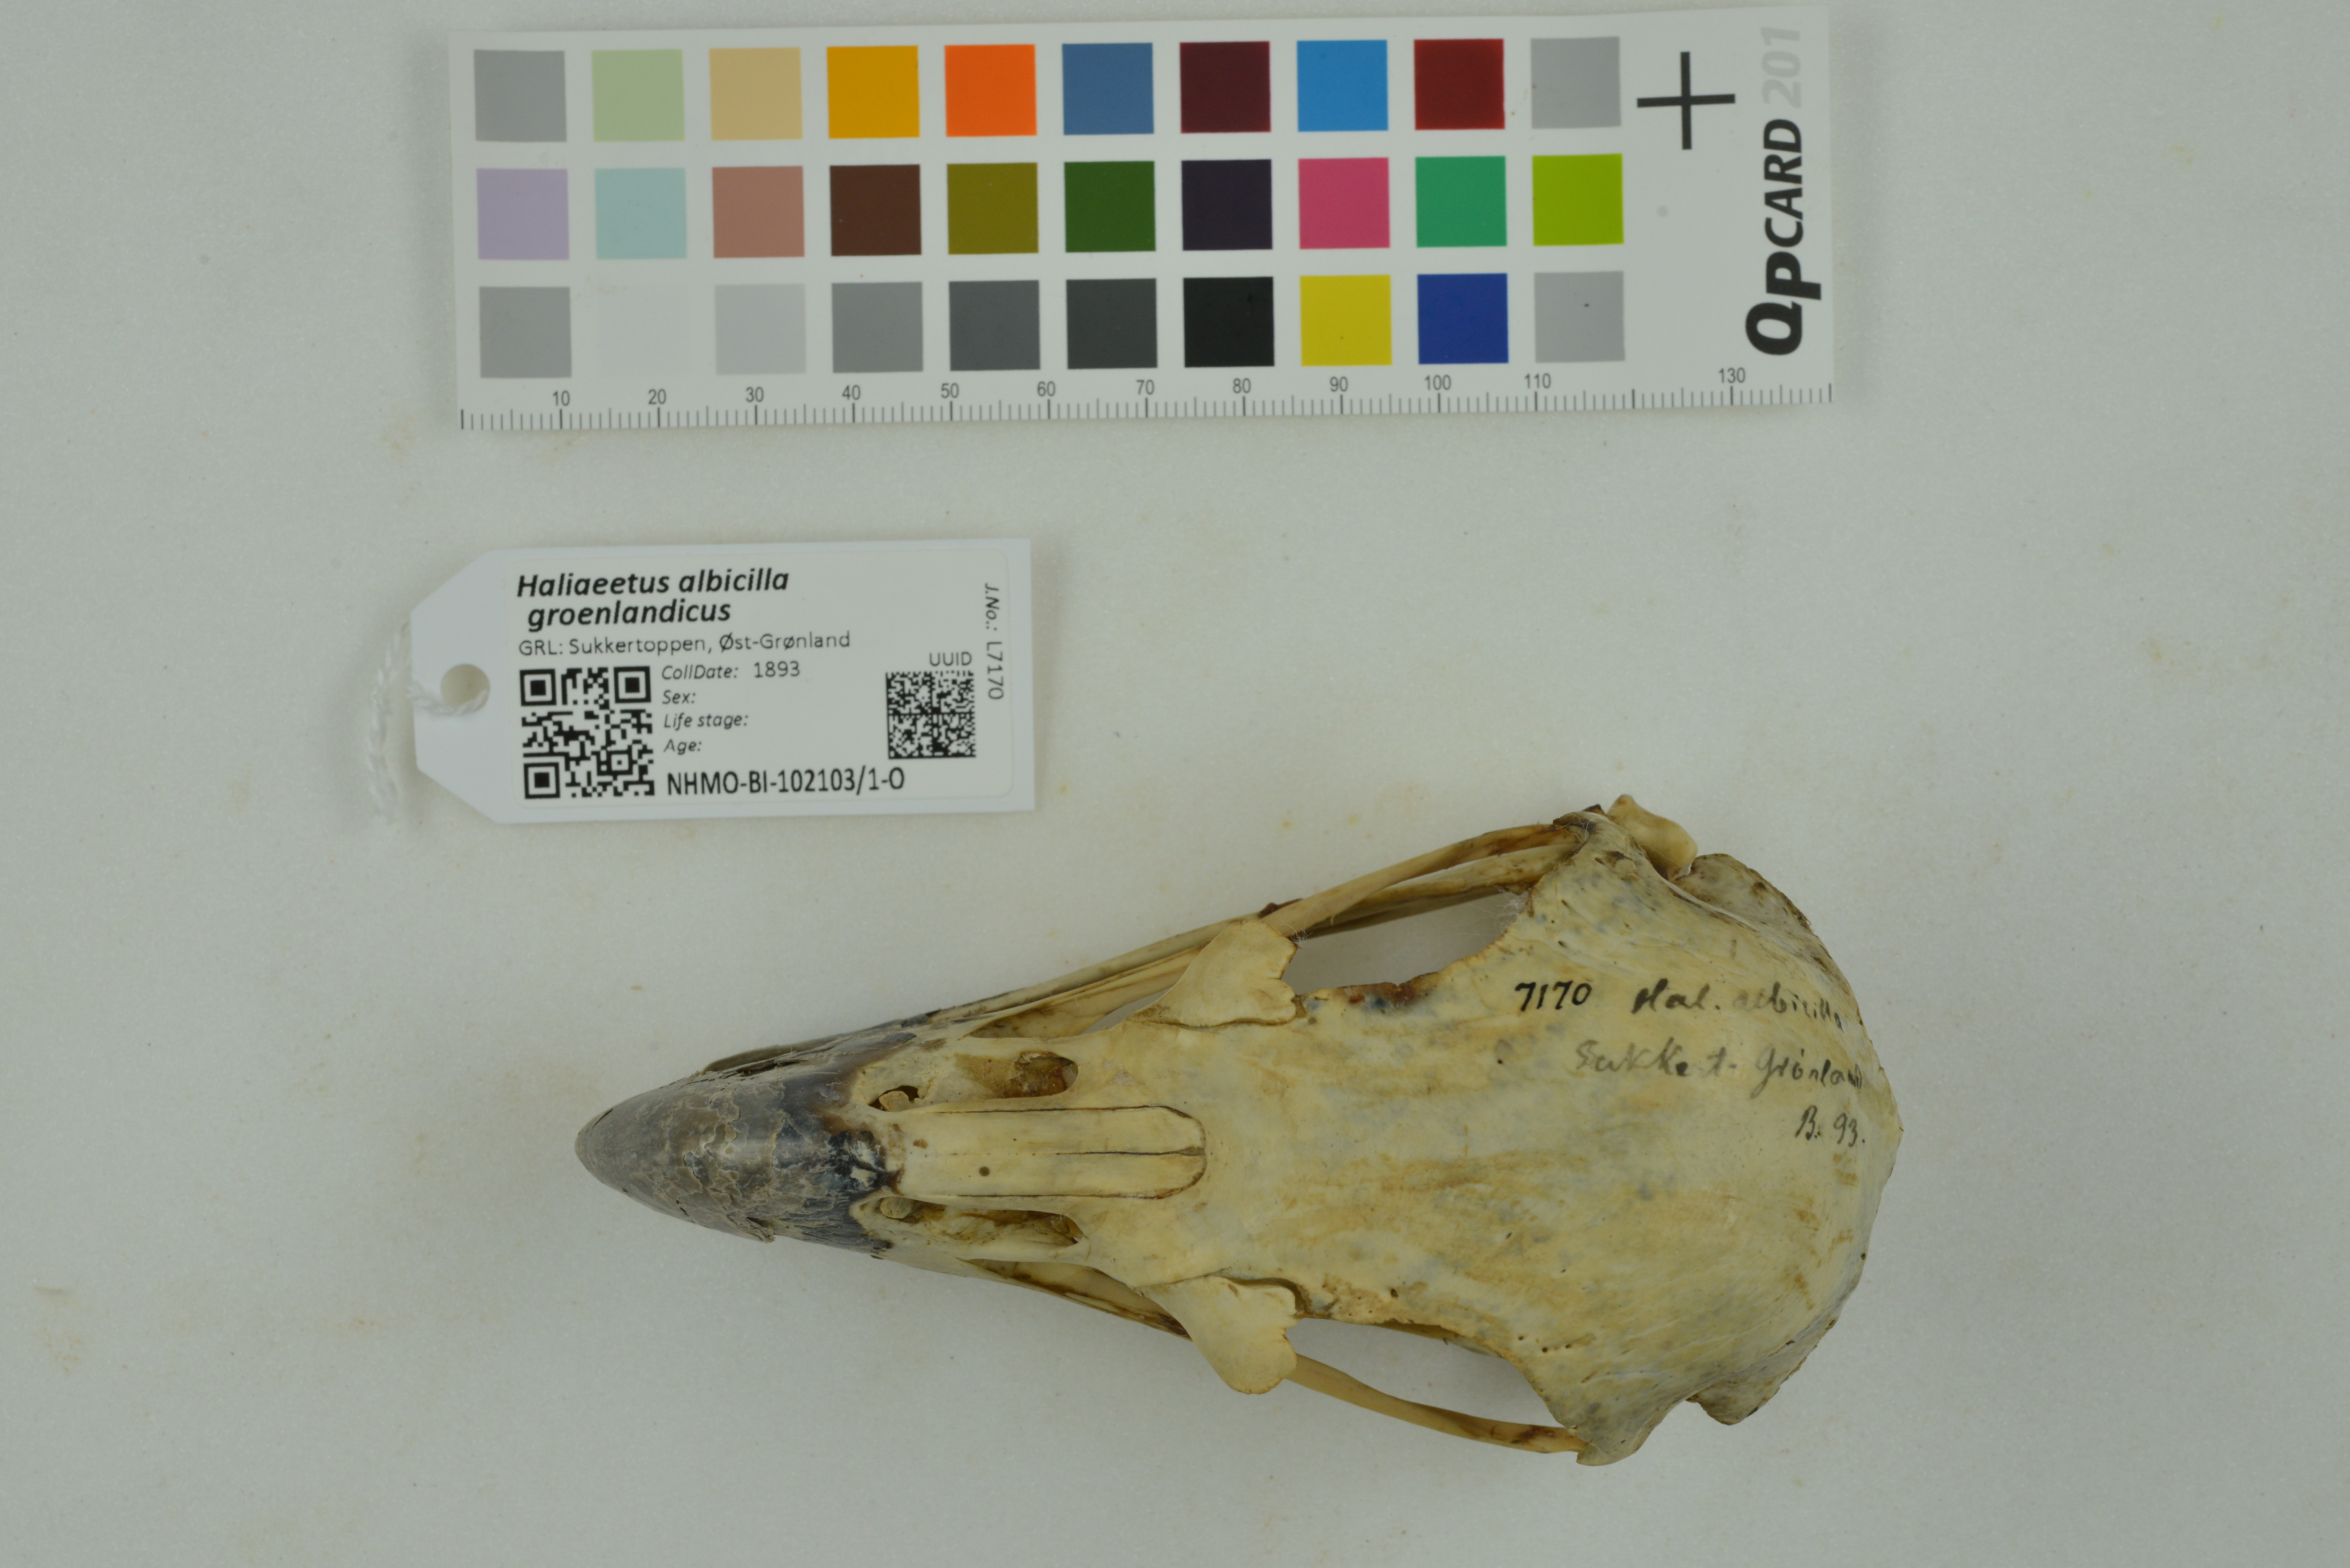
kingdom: Animalia
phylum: Chordata
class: Aves
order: Accipitriformes
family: Accipitridae
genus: Haliaeetus
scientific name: Haliaeetus albicilla
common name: White-tailed eagle
